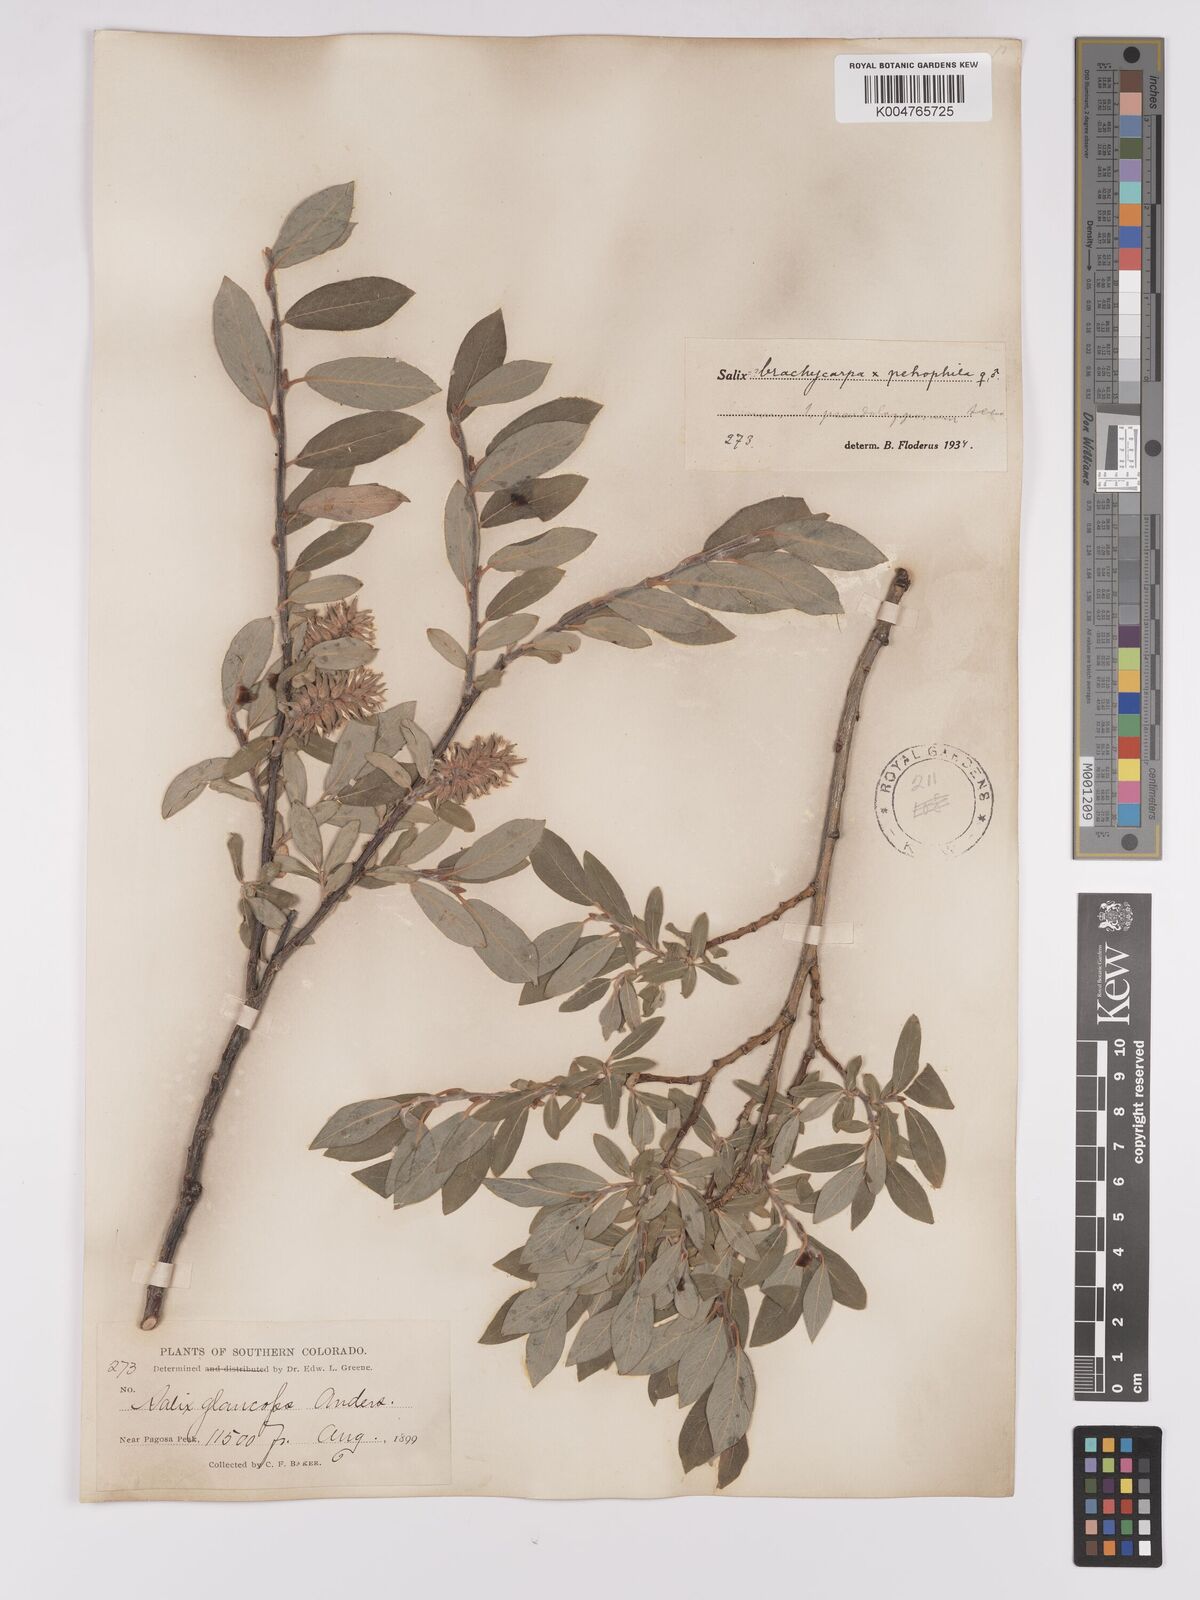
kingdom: Plantae
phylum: Tracheophyta
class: Magnoliopsida
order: Malpighiales
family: Salicaceae
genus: Salix
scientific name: Salix brachycarpa
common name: Barren-ground willow
